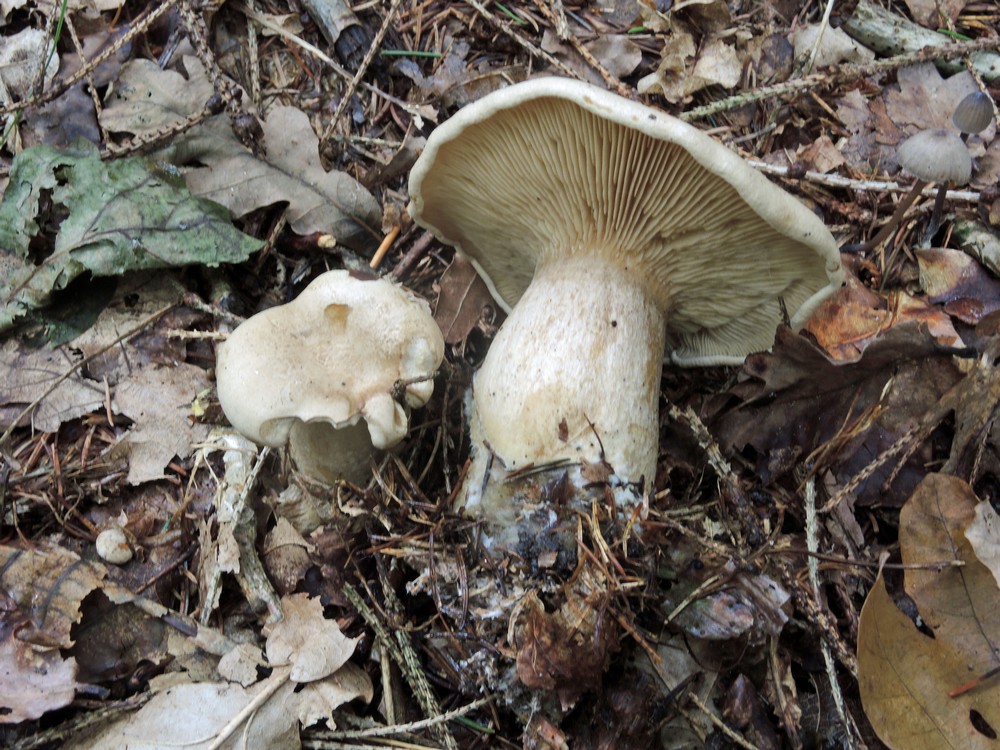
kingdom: Fungi
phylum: Basidiomycota
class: Agaricomycetes
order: Agaricales
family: Pseudoclitocybaceae
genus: Clitopaxillus
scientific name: Clitopaxillus fibulatus
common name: bestøvlet tragthat
